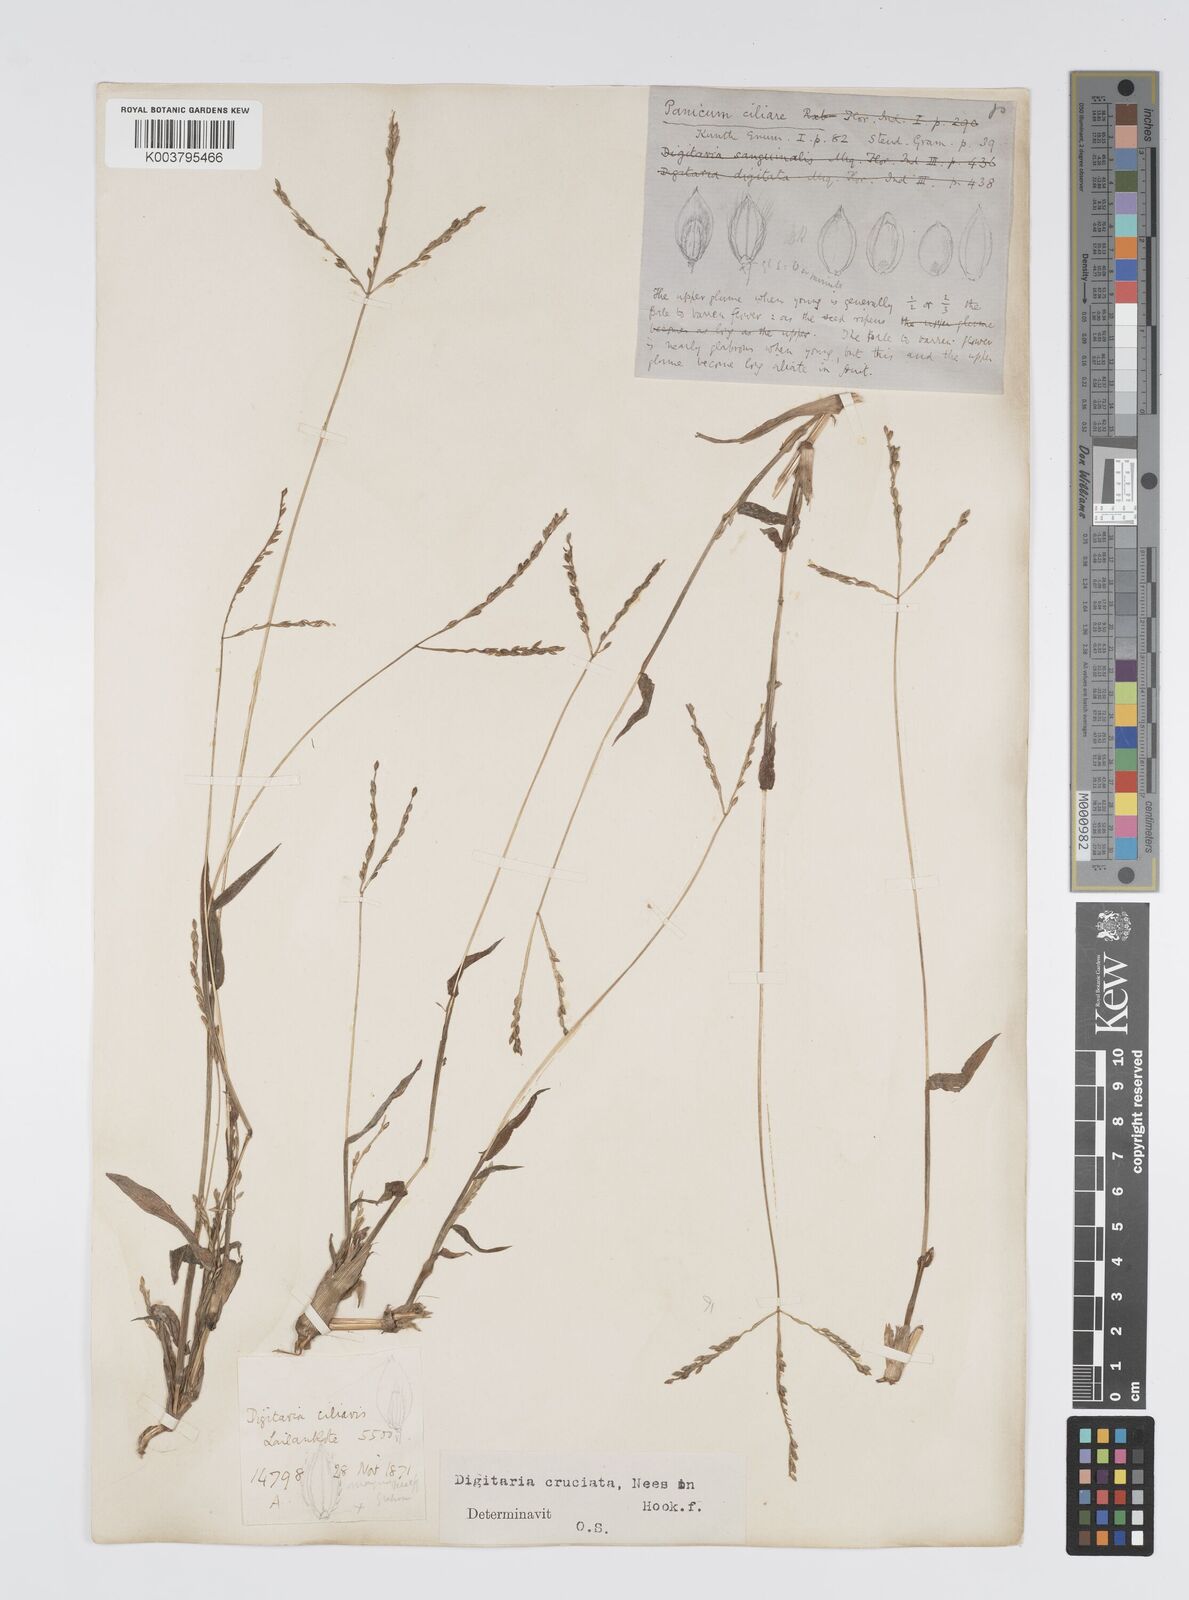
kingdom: Plantae
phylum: Tracheophyta
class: Liliopsida
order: Poales
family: Poaceae
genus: Digitaria
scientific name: Digitaria cruciata
